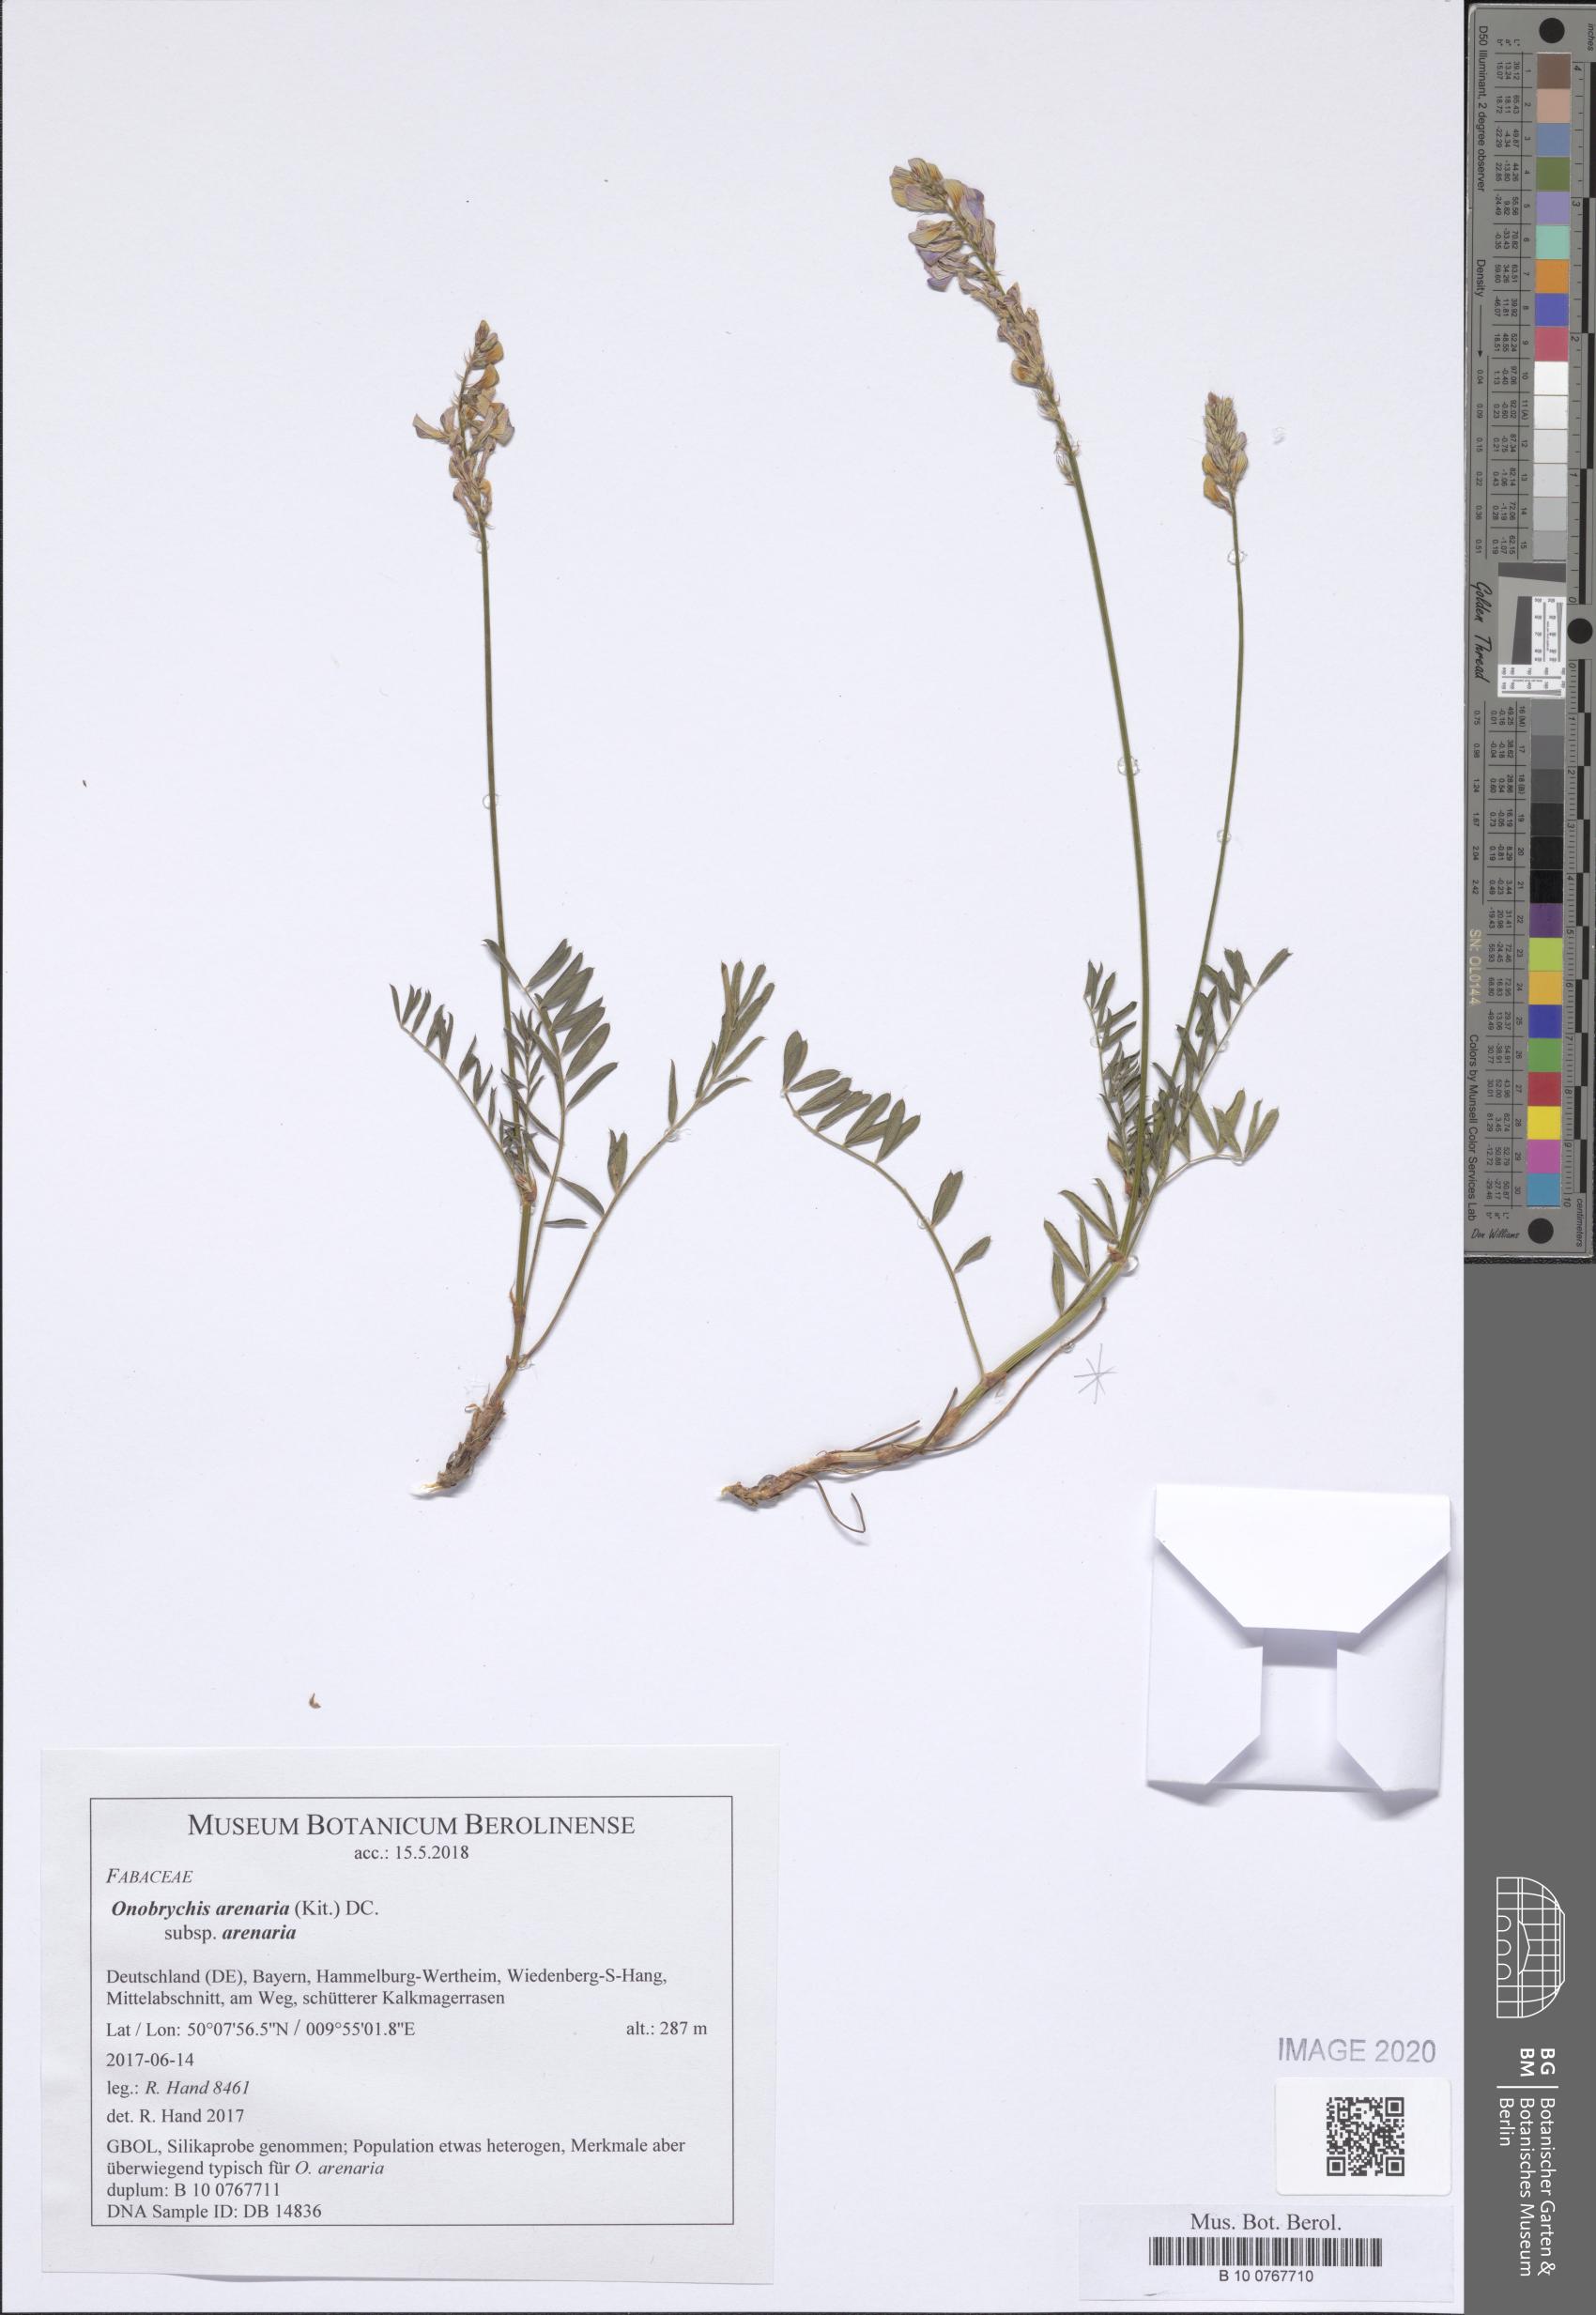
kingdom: Plantae
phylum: Tracheophyta
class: Magnoliopsida
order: Fabales
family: Fabaceae
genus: Onobrychis
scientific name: Onobrychis arenaria
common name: Sand esparcet
